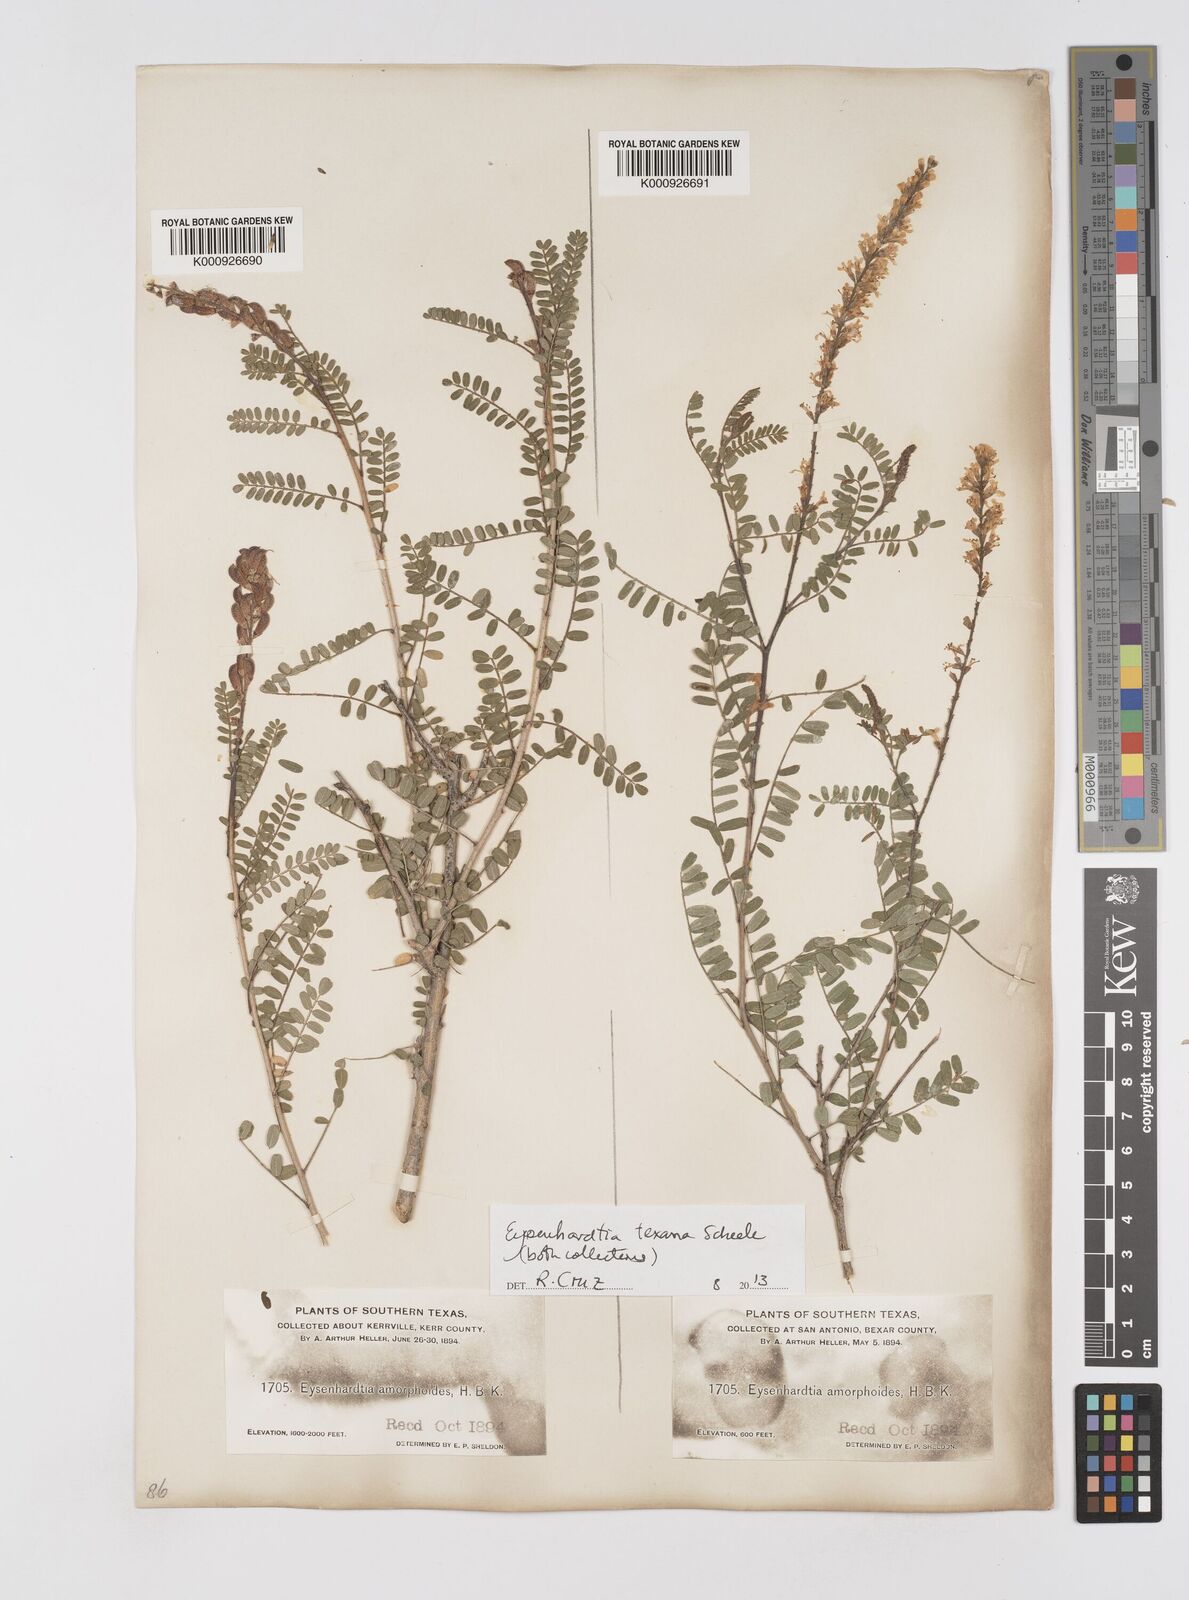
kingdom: Plantae
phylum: Tracheophyta
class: Magnoliopsida
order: Fabales
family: Fabaceae
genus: Eysenhardtia
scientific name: Eysenhardtia texana
